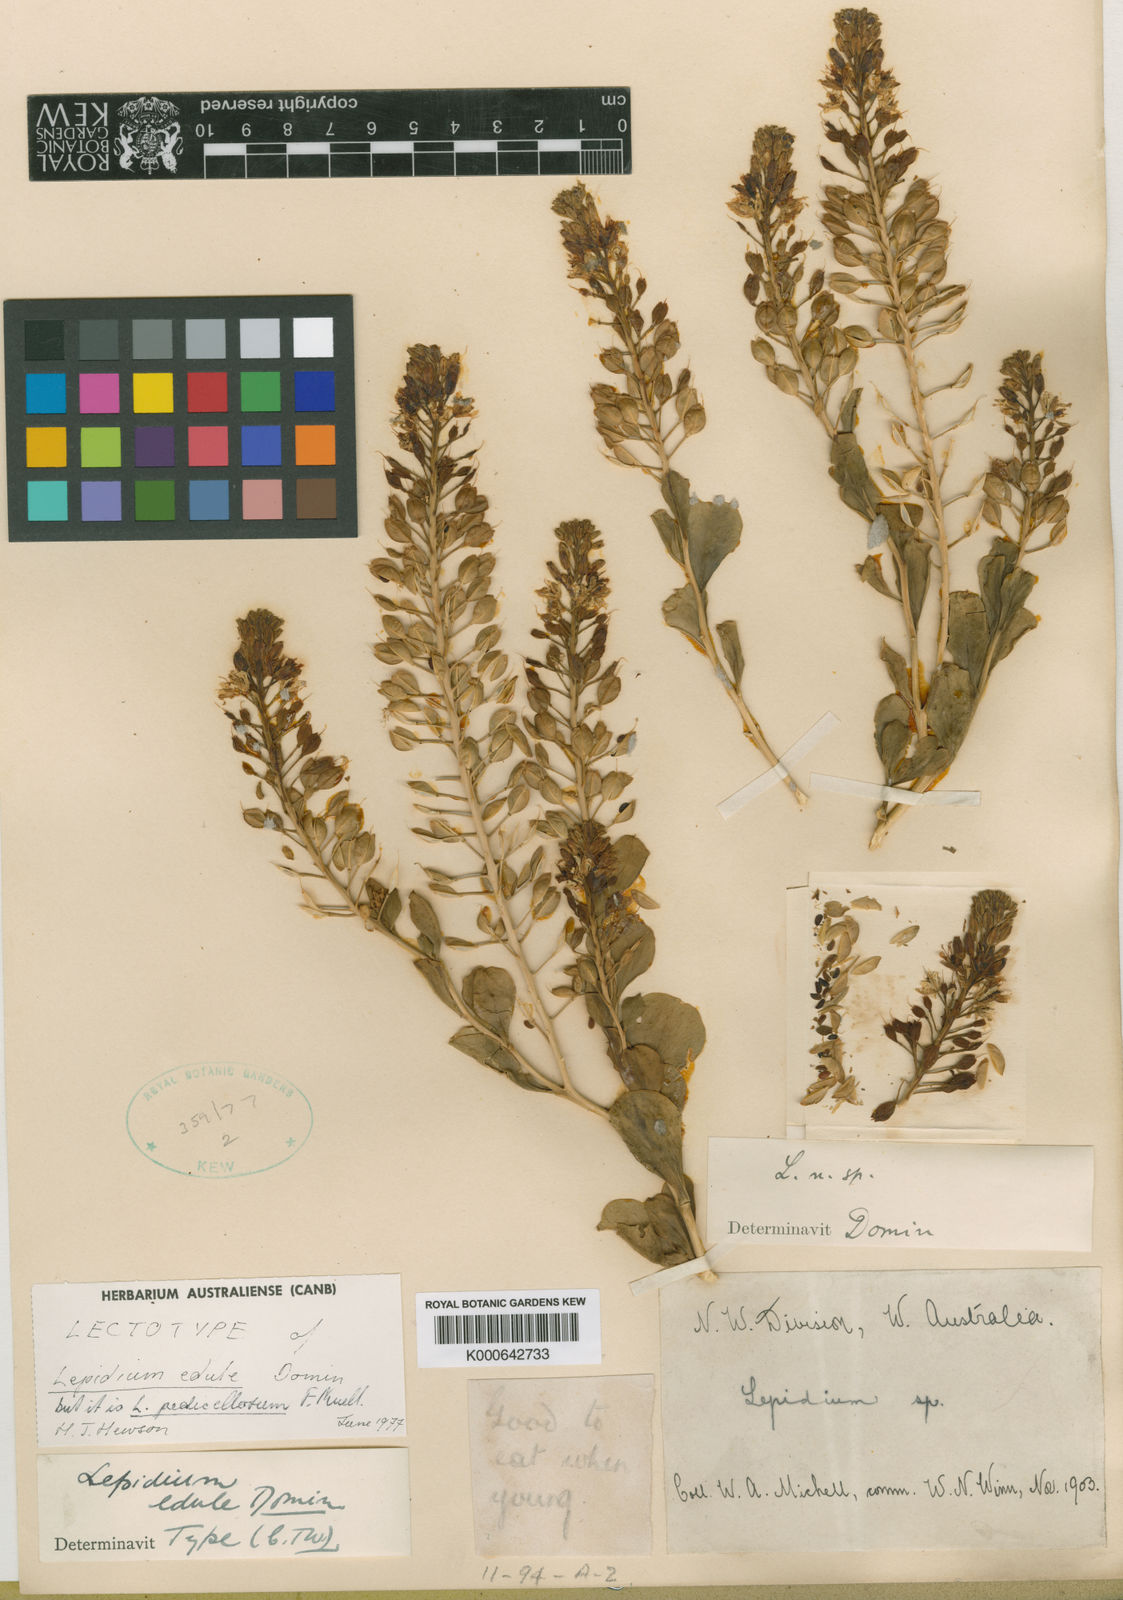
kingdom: Plantae
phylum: Tracheophyta
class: Magnoliopsida
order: Brassicales
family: Brassicaceae
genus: Lepidium
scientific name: Lepidium pedicellosum
